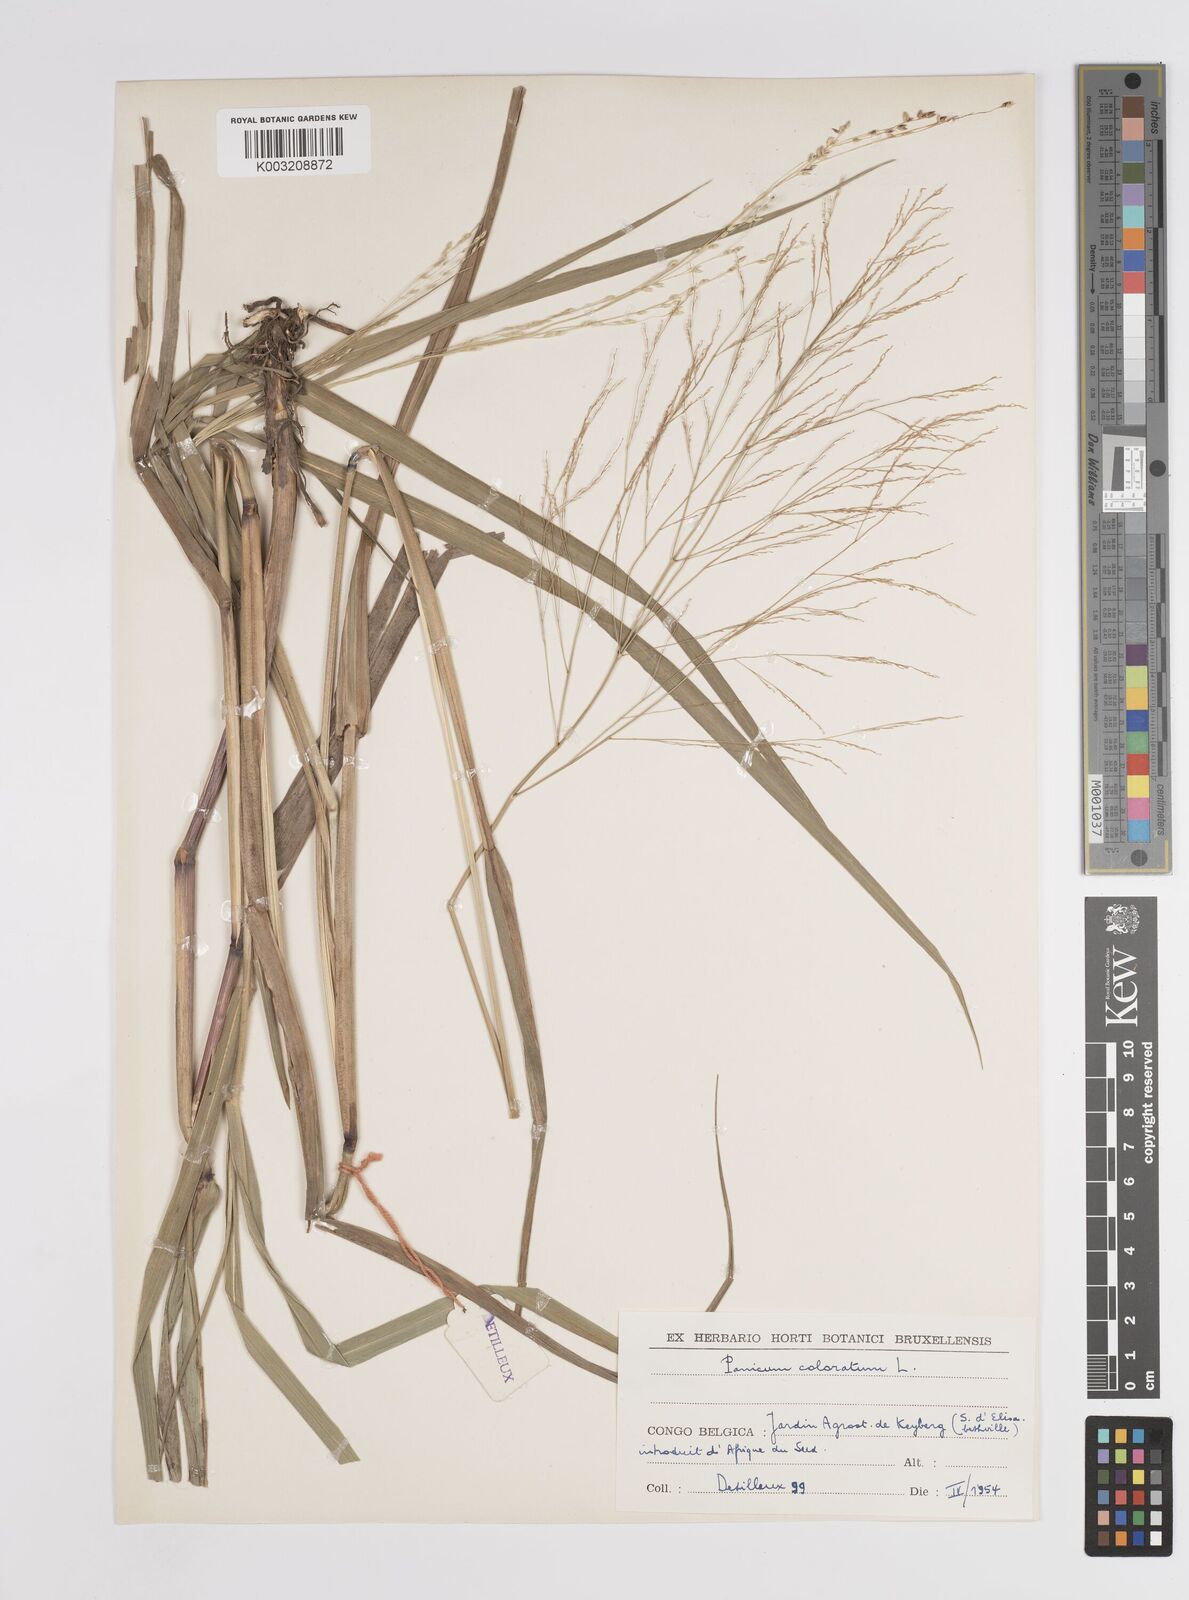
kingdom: Plantae
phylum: Tracheophyta
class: Liliopsida
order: Poales
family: Poaceae
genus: Panicum
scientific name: Panicum coloratum
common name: Kleingrass
